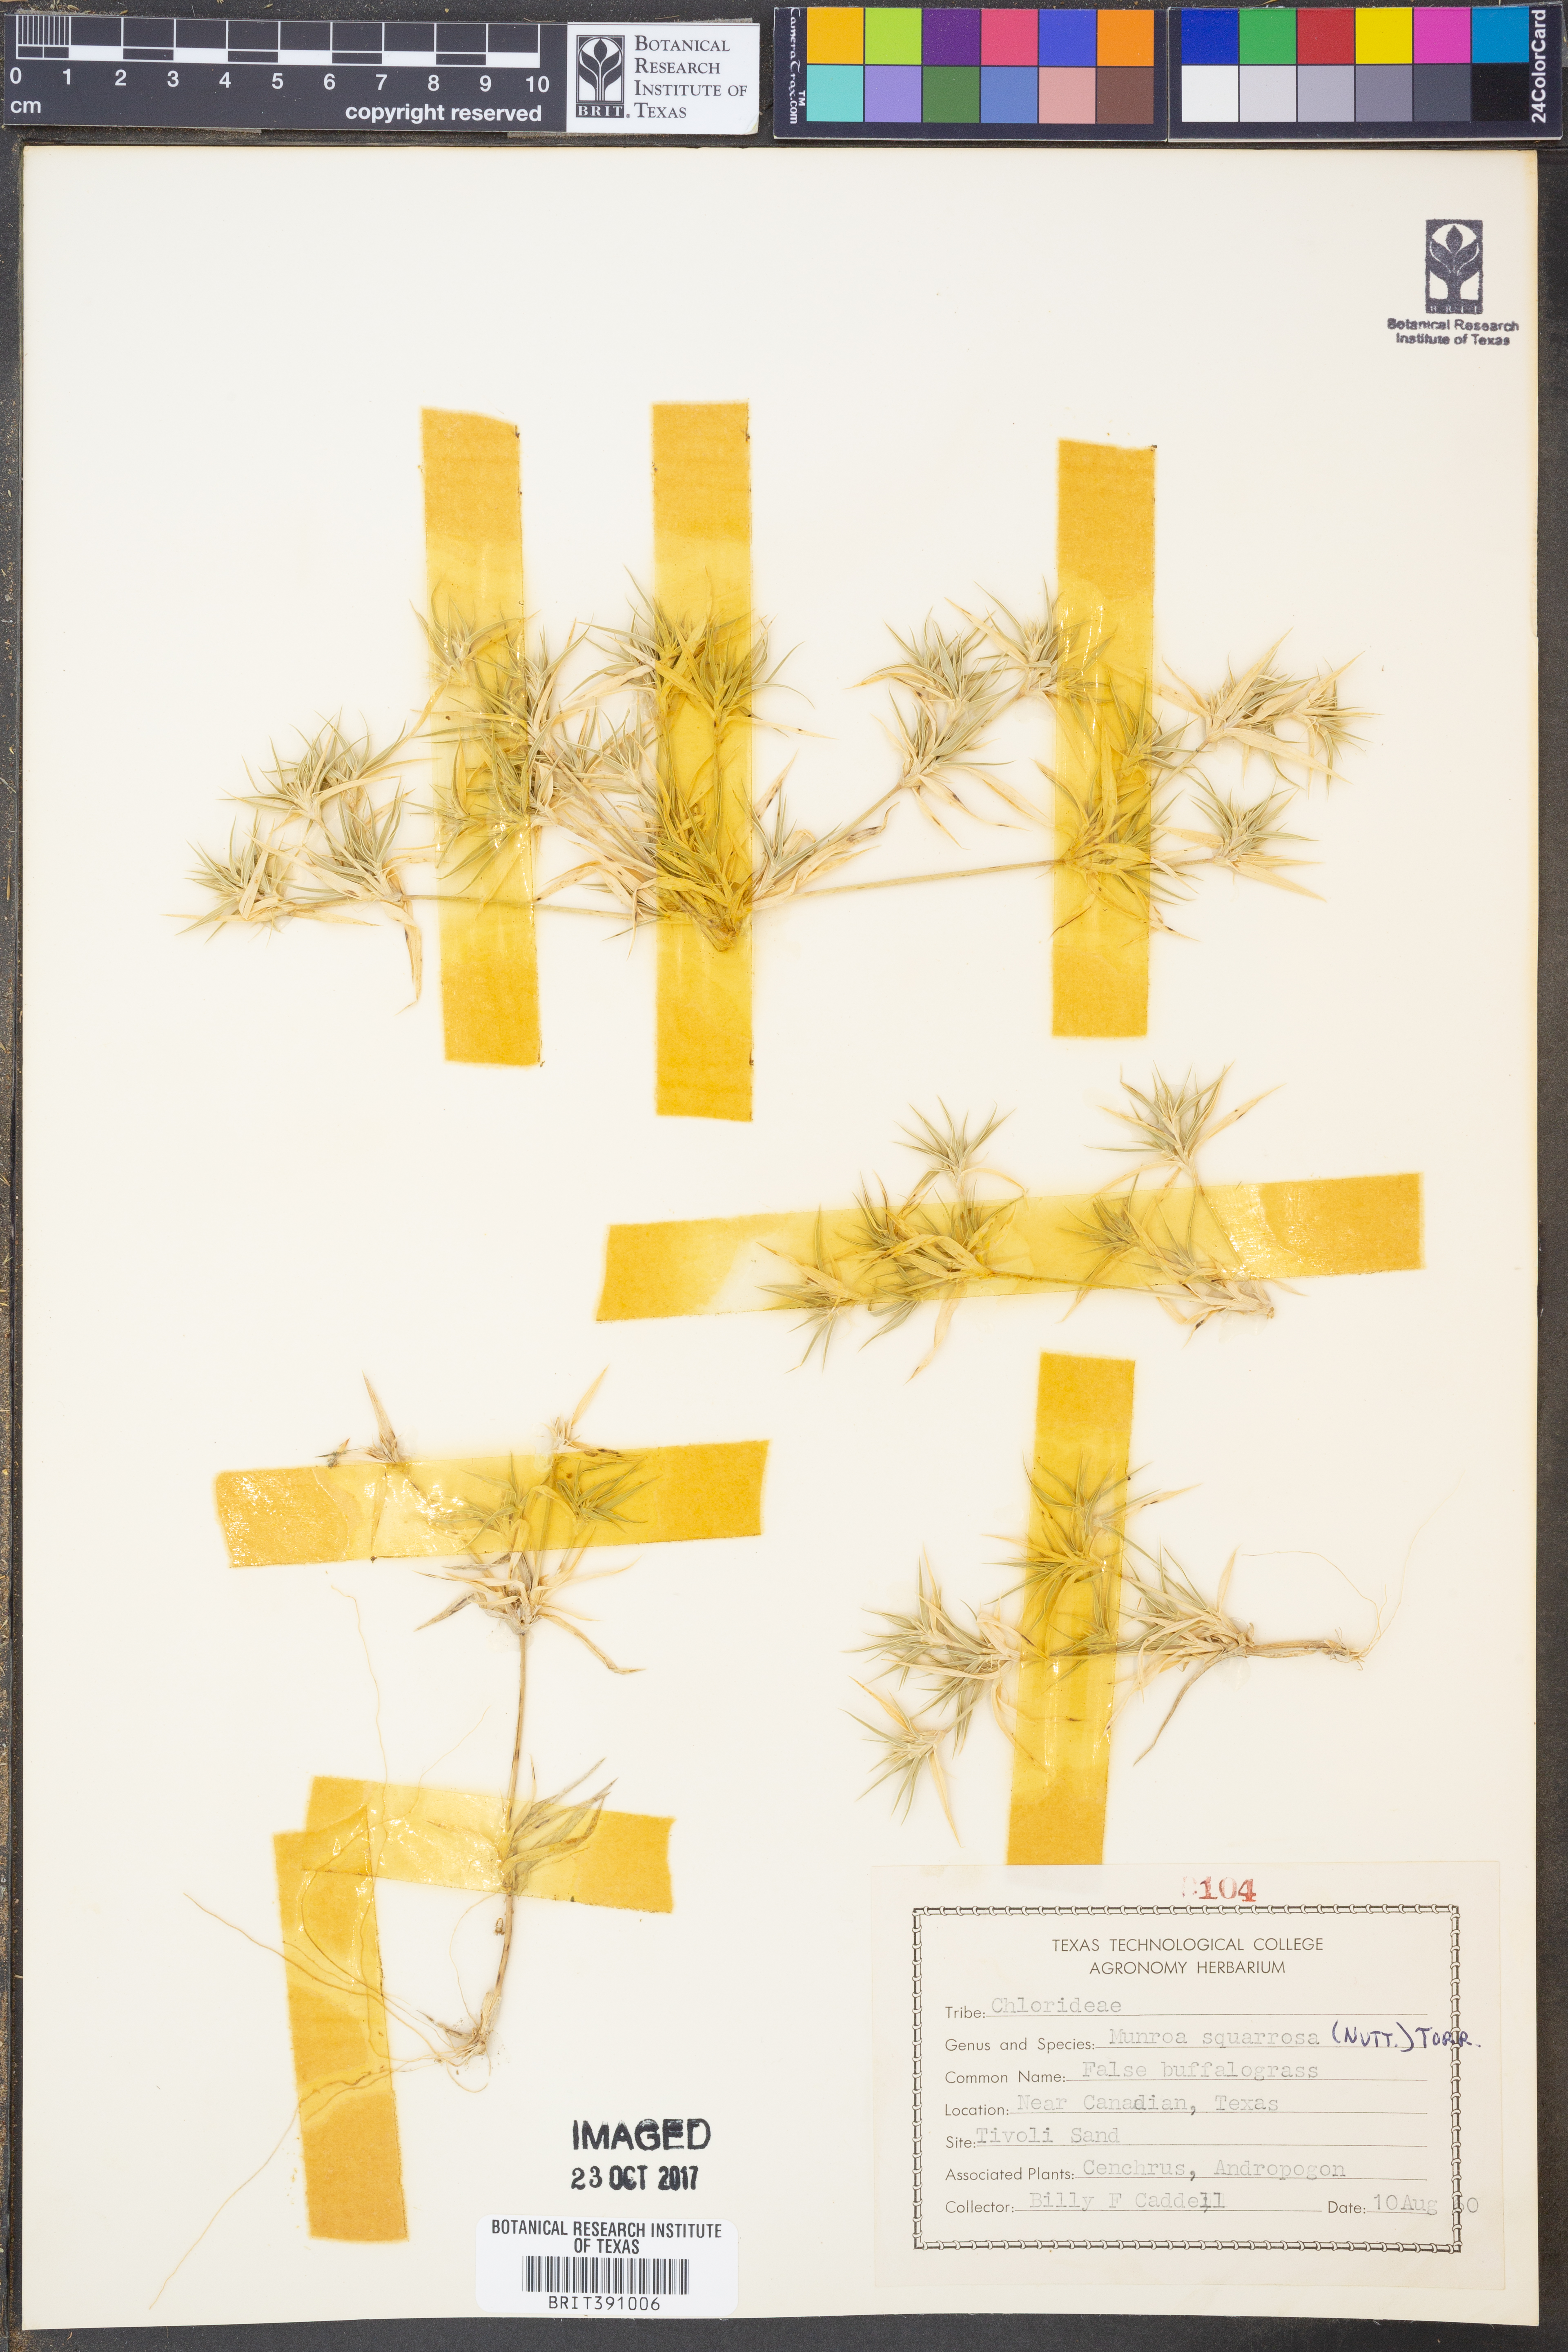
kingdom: Plantae
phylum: Tracheophyta
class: Liliopsida
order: Poales
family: Poaceae
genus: Munroa
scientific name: Munroa squarrosa
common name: False buffalo grass
